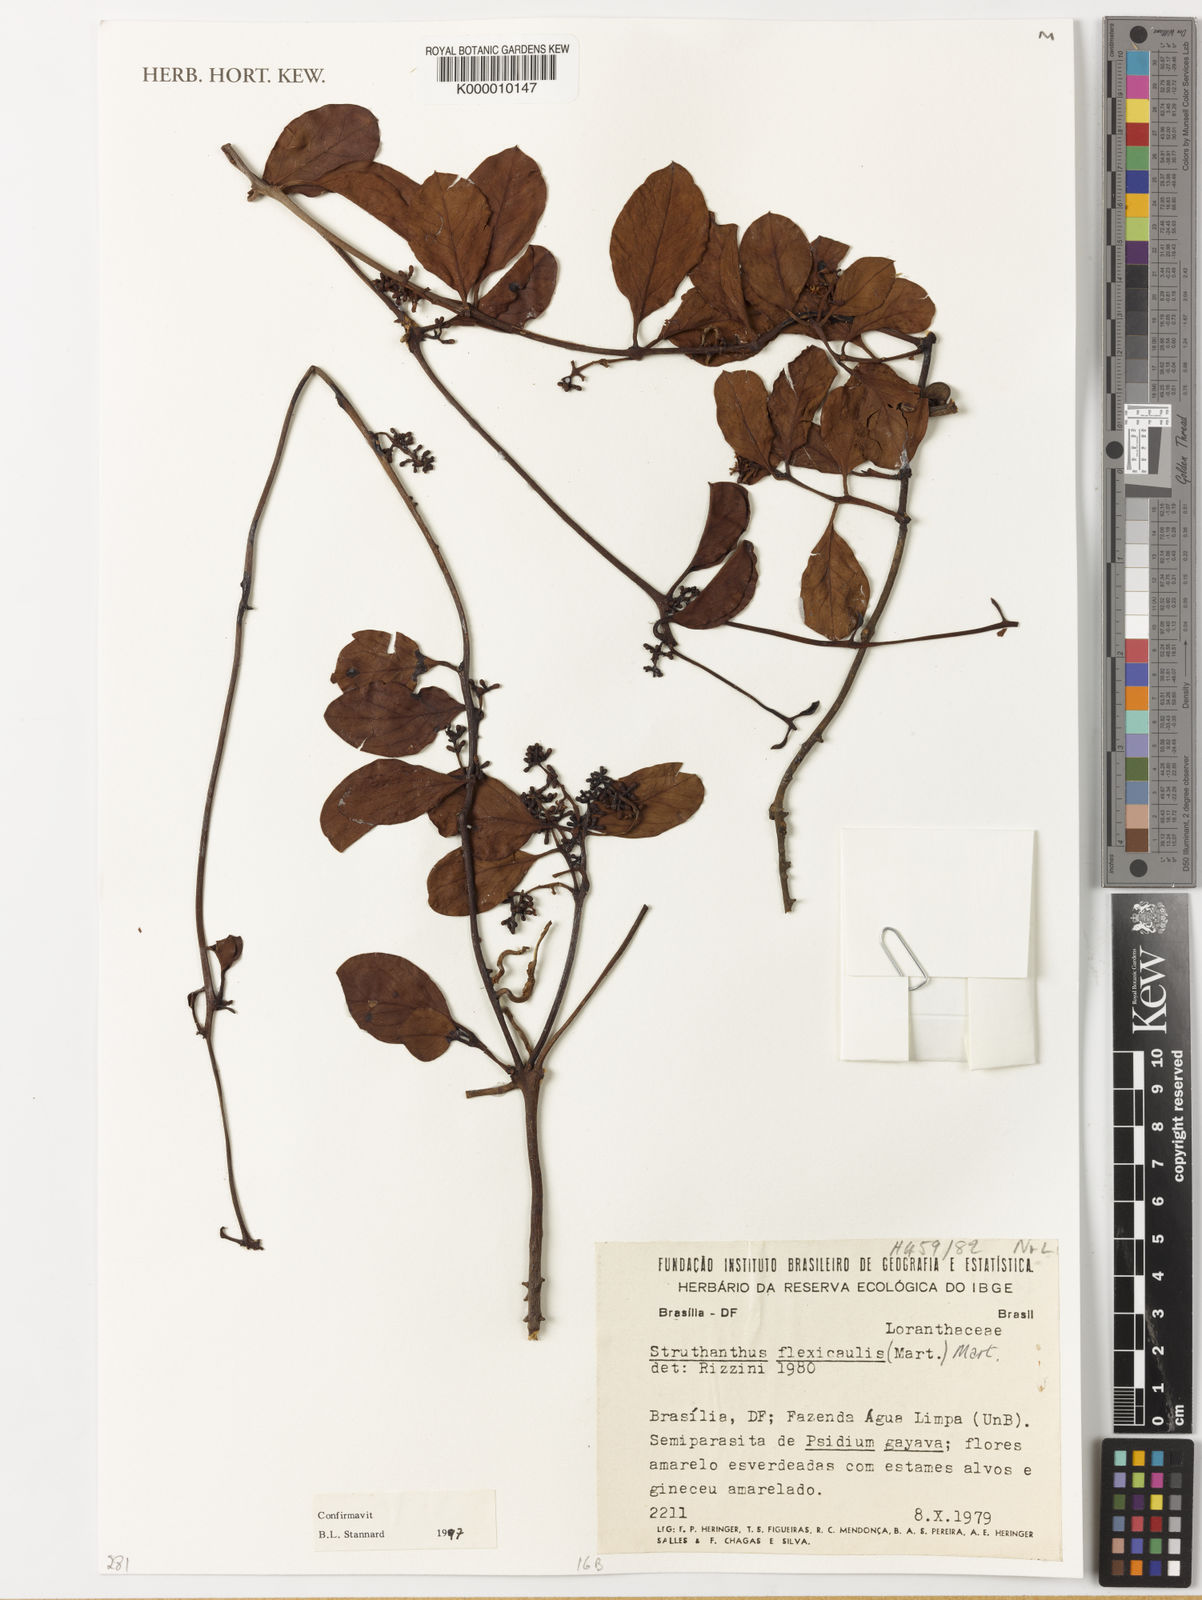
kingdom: Plantae
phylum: Tracheophyta
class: Magnoliopsida
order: Santalales
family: Loranthaceae
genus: Struthanthus
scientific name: Struthanthus flexicaulis
